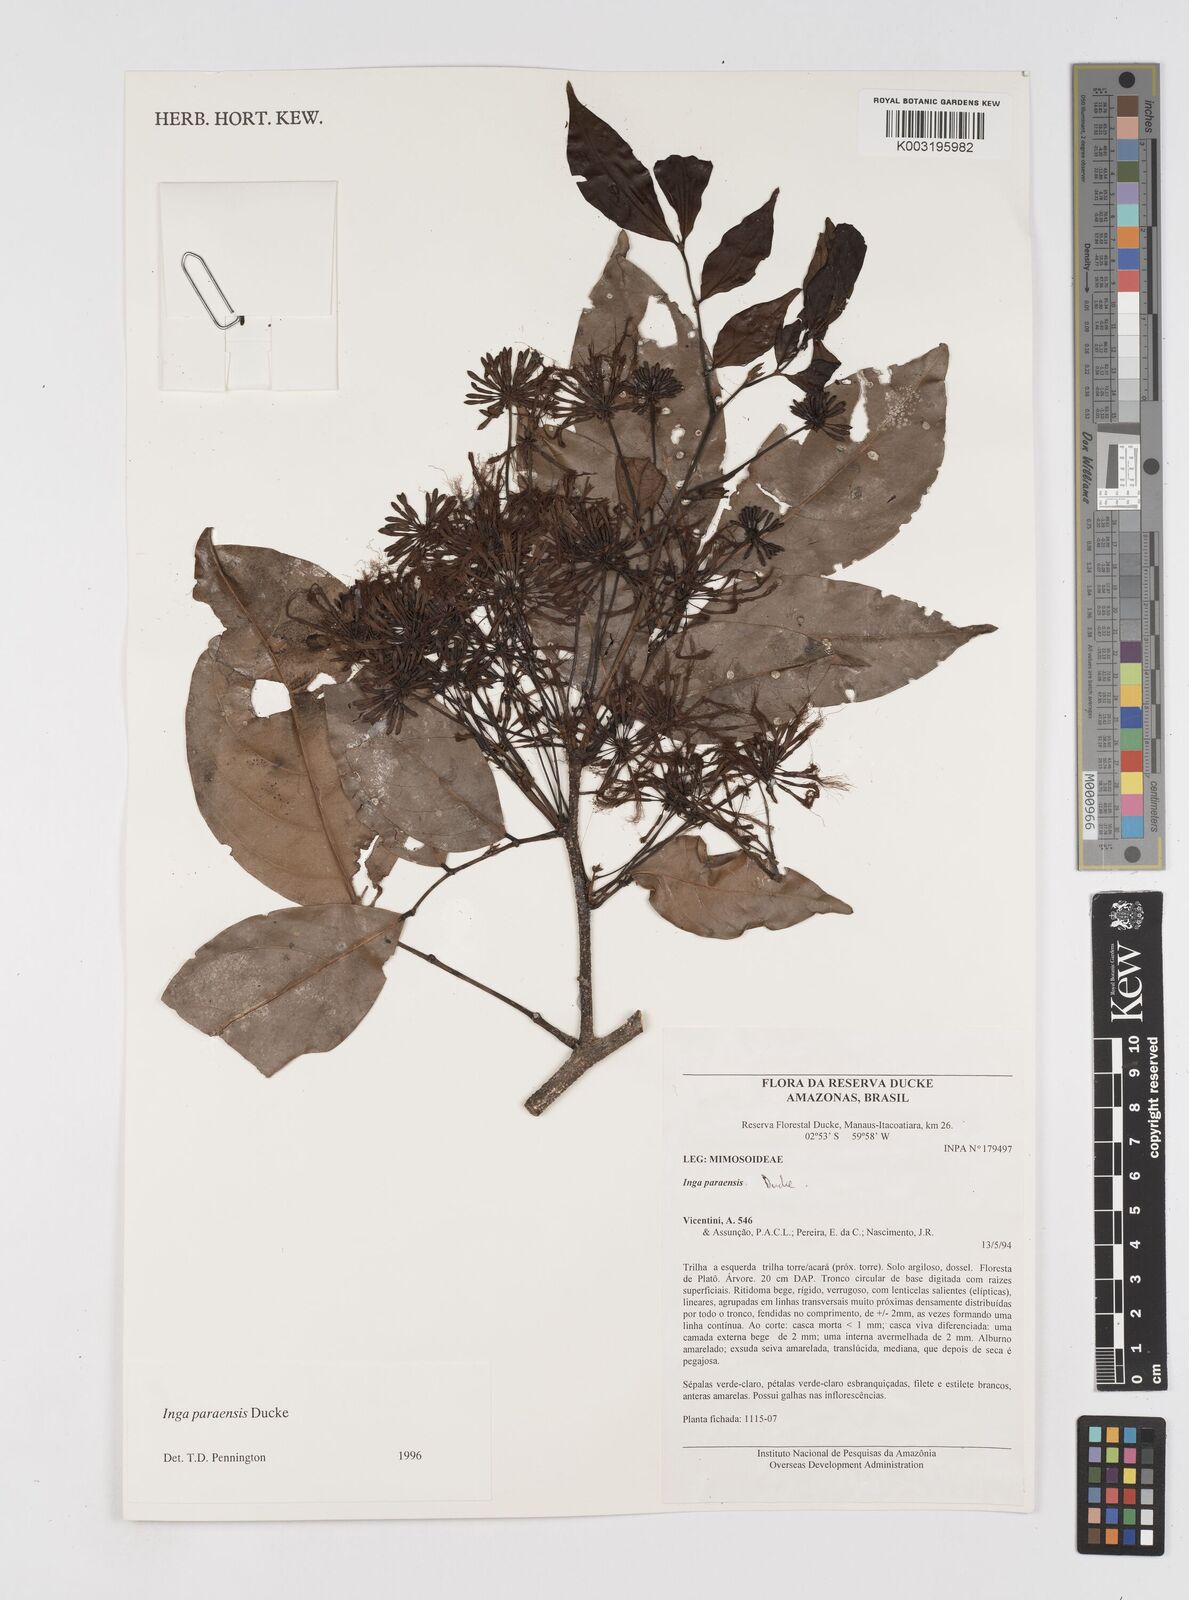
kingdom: Plantae
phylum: Tracheophyta
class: Magnoliopsida
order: Fabales
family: Fabaceae
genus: Inga
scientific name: Inga paraensis
